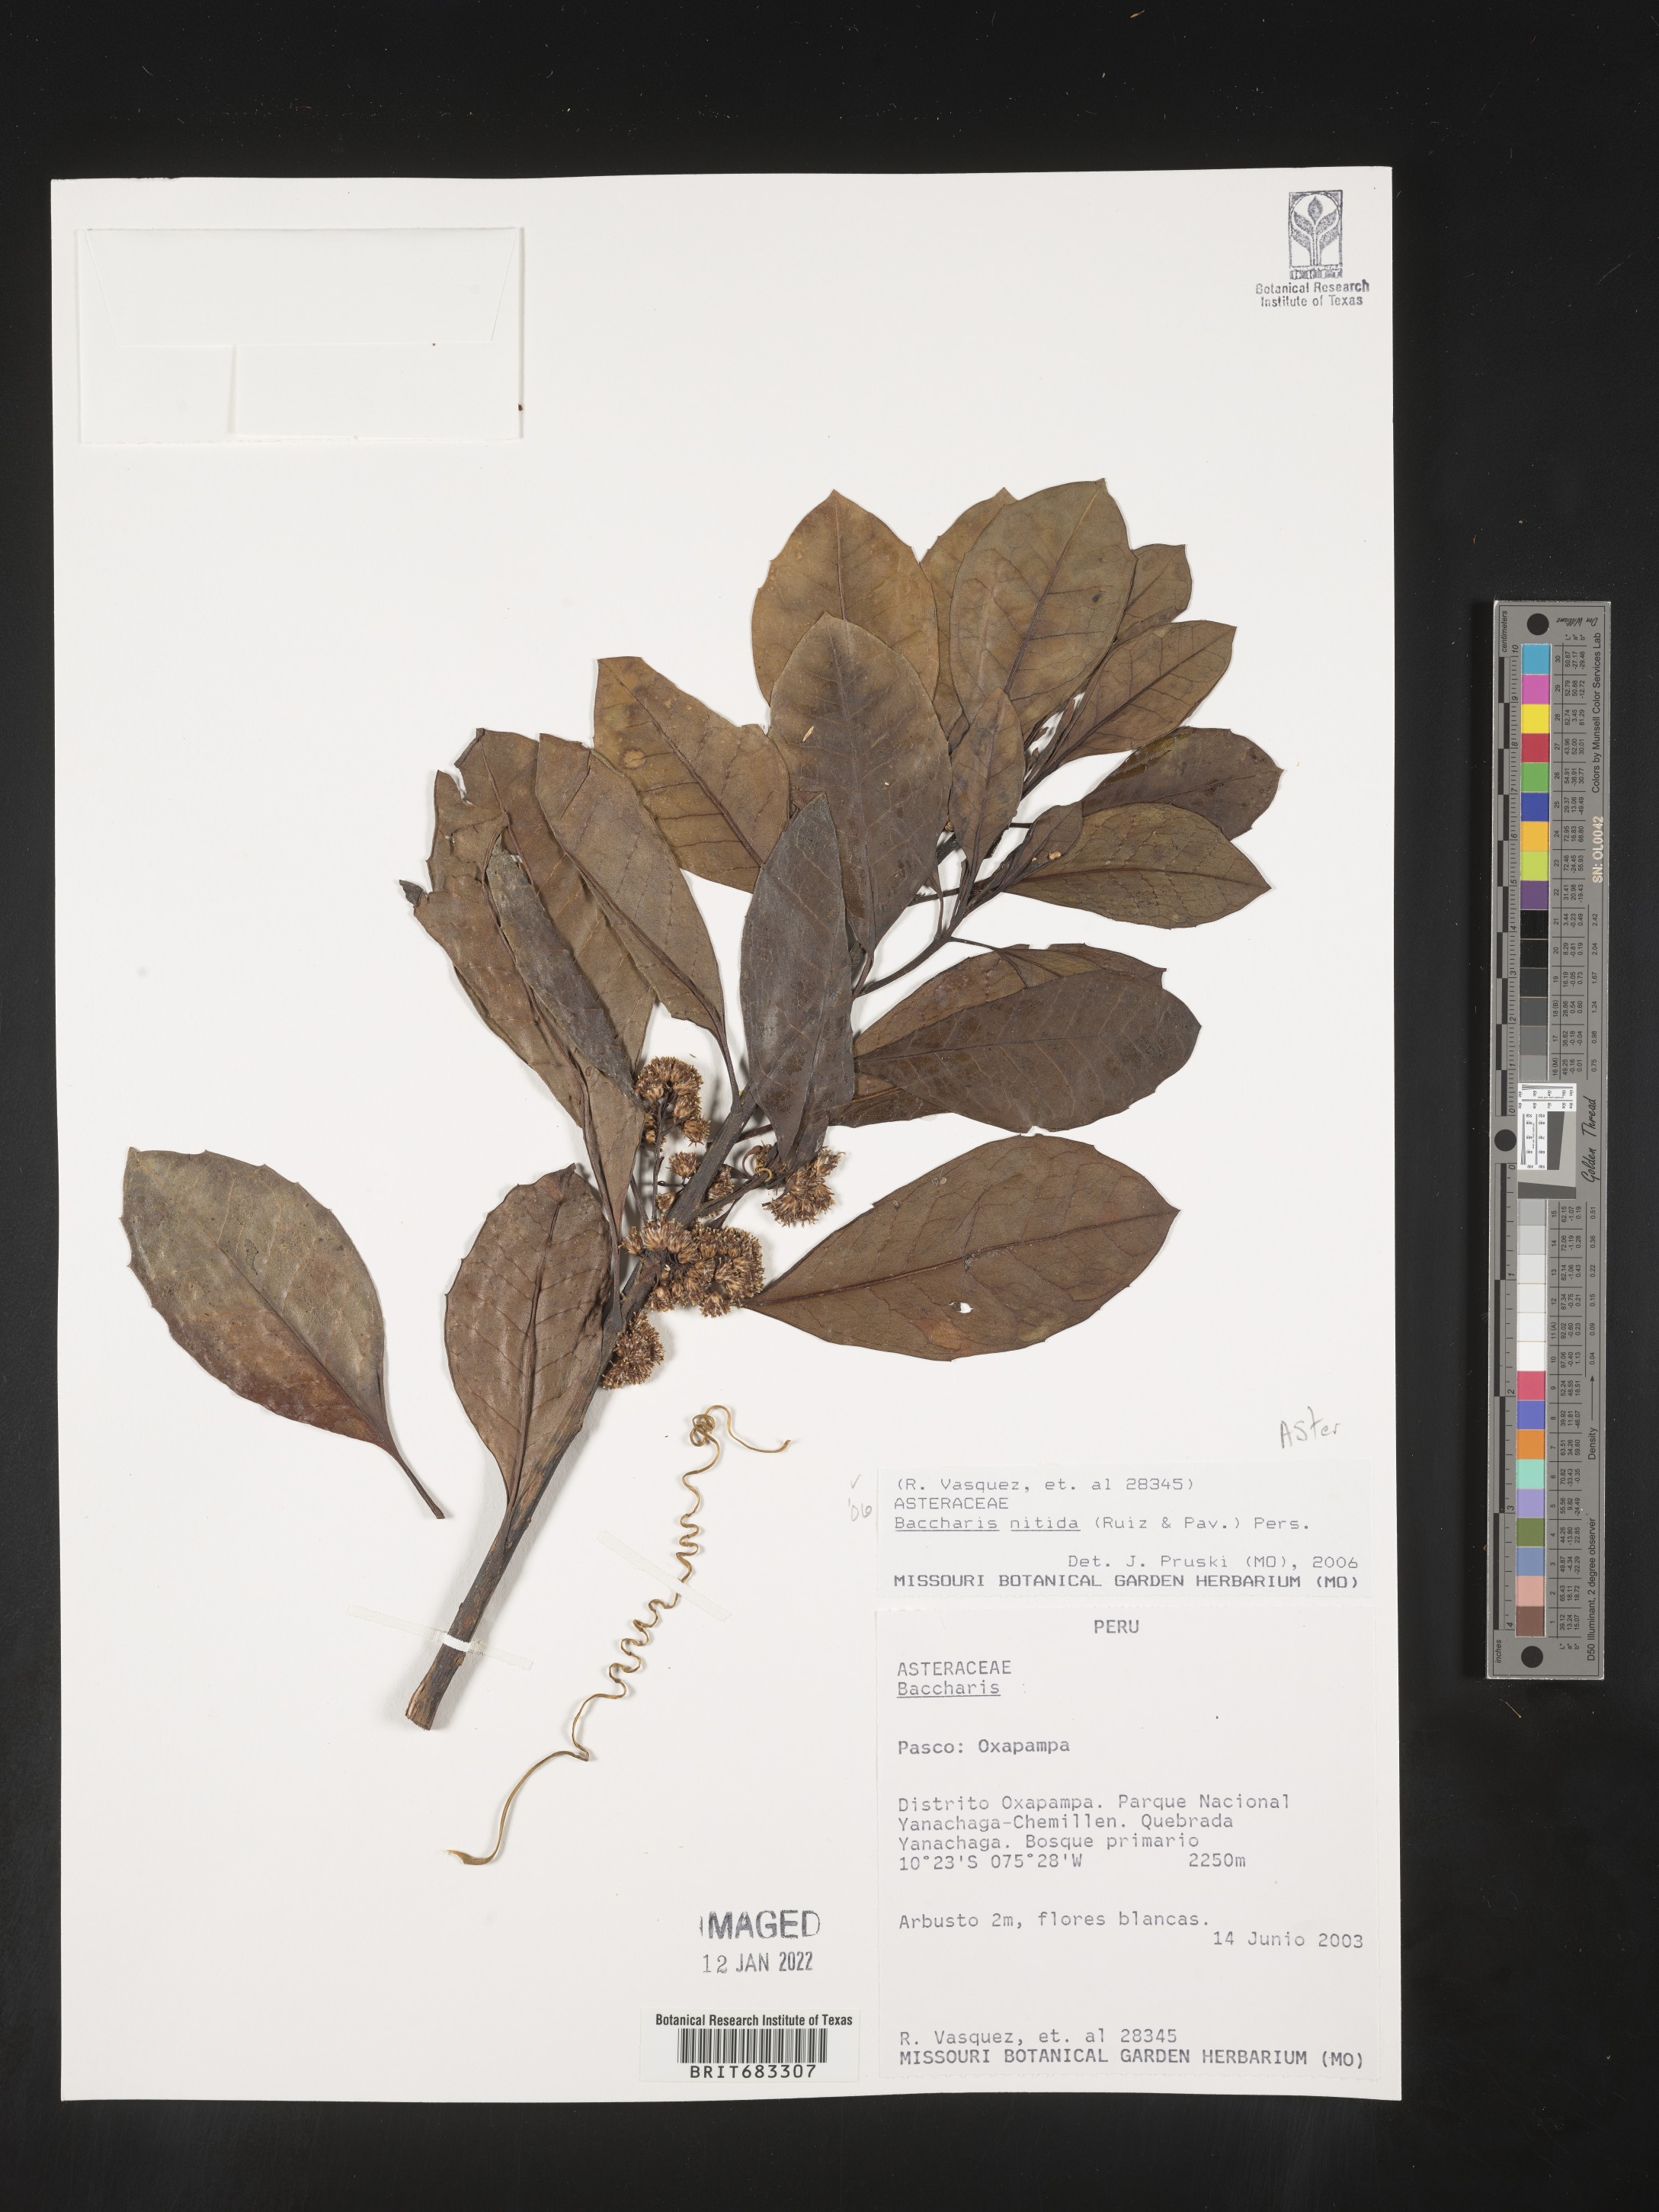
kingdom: Plantae
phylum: Tracheophyta
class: Magnoliopsida
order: Asterales
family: Asteraceae
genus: Baccharis
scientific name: Baccharis
